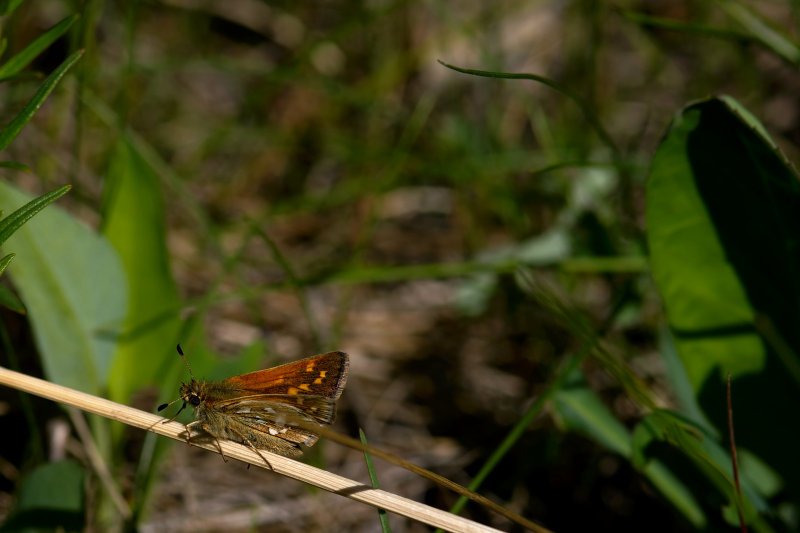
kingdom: Animalia
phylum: Arthropoda
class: Insecta
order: Lepidoptera
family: Hesperiidae
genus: Polites
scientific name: Polites sabuleti
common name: Draco Skipper
